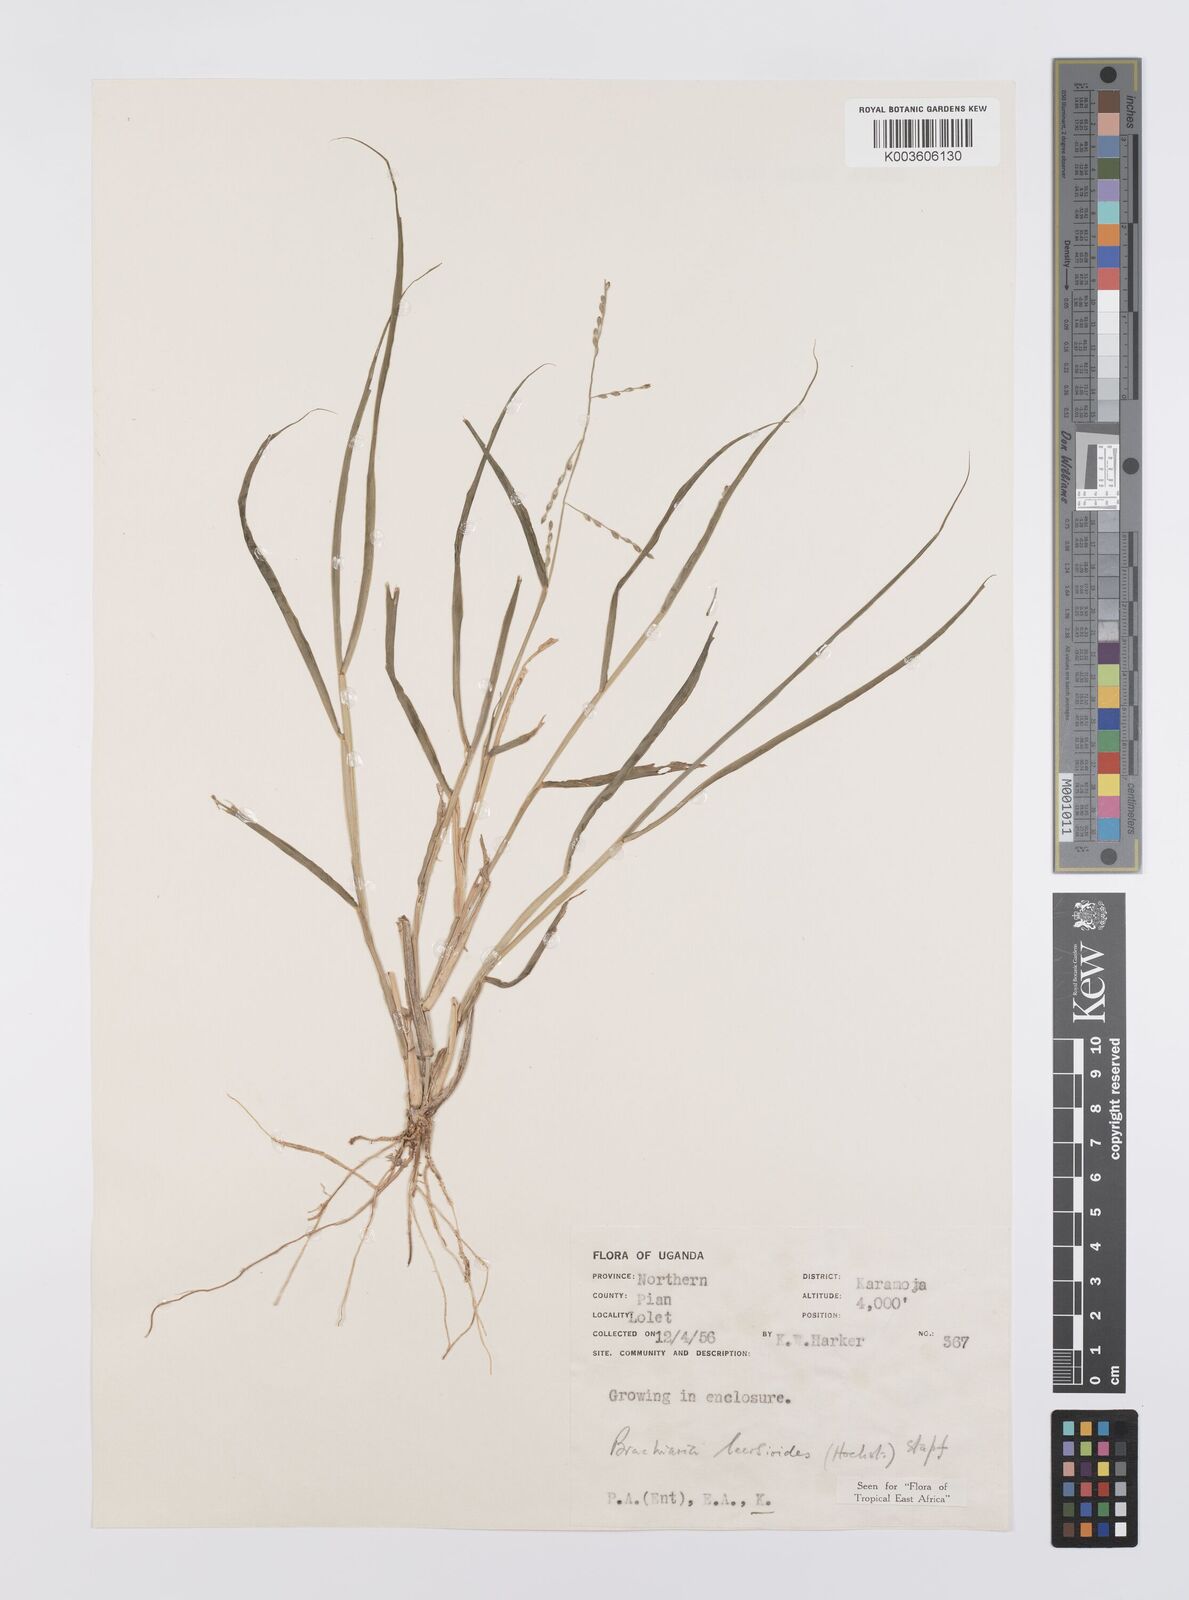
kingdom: Plantae
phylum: Tracheophyta
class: Liliopsida
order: Poales
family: Poaceae
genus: Urochloa
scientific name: Urochloa leersioides
